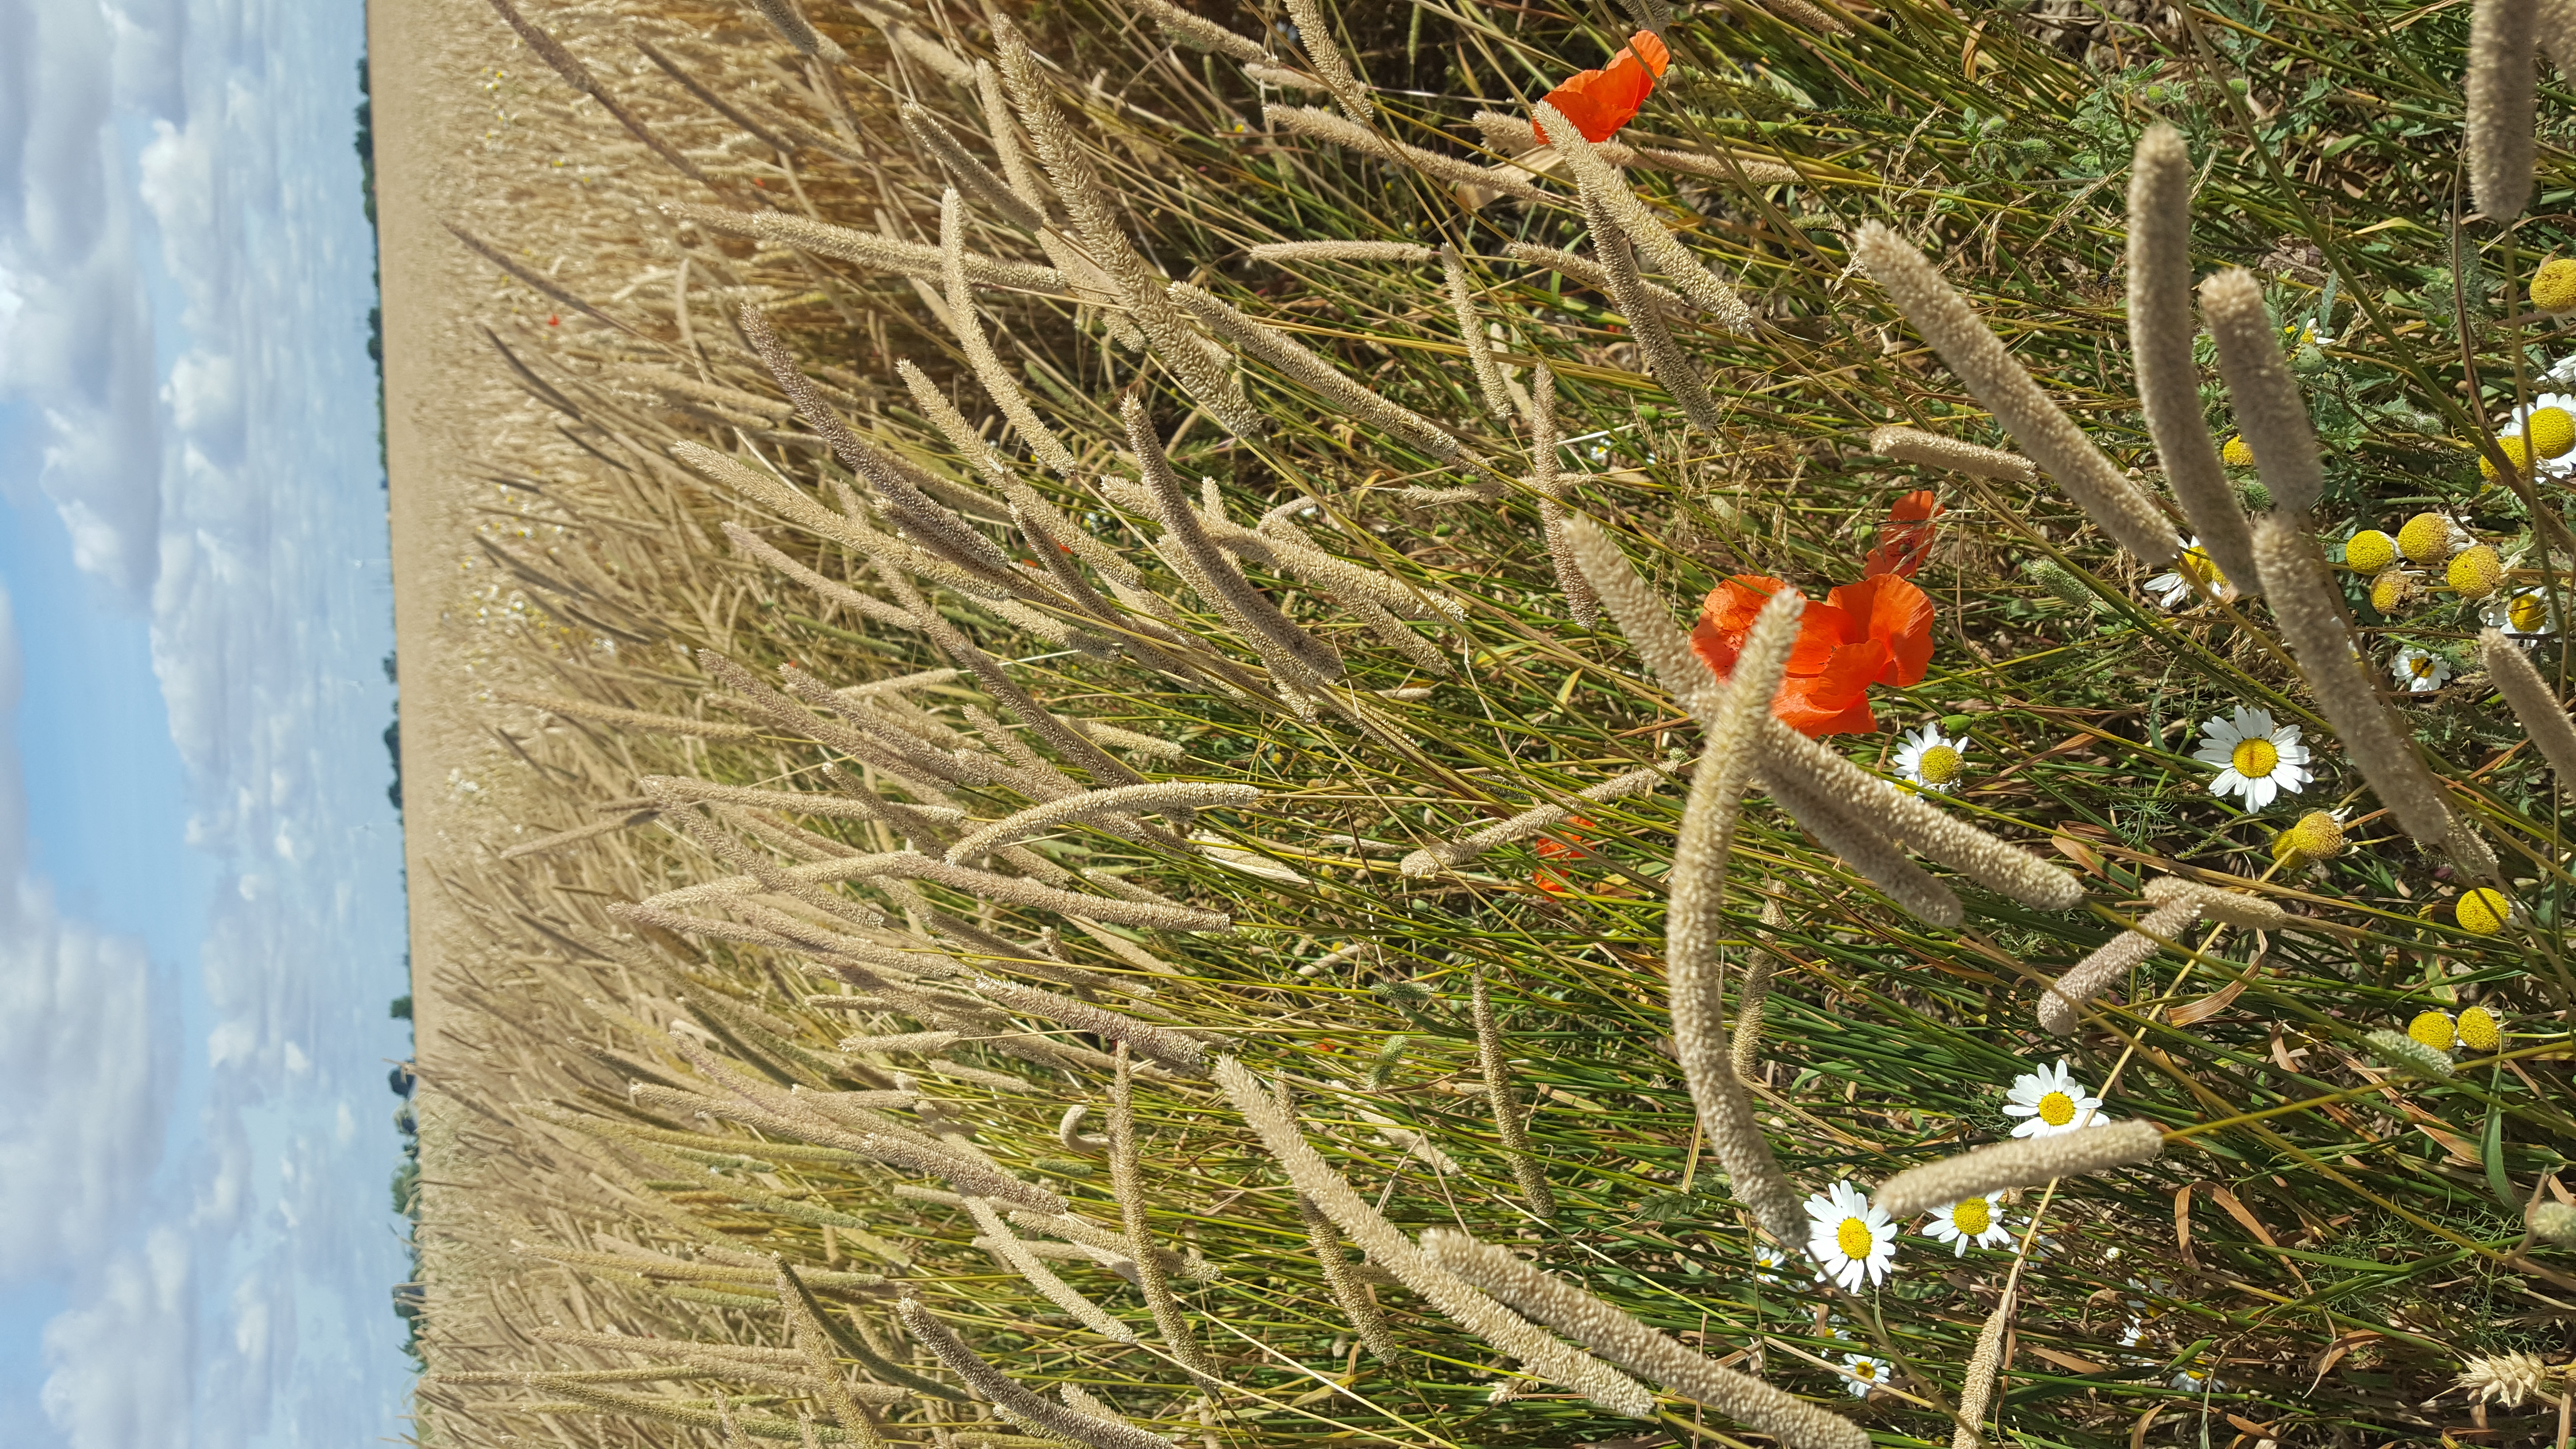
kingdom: Plantae
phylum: Tracheophyta
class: Liliopsida
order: Poales
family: Poaceae
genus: Phleum
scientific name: Phleum pratense
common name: Timothy grass
